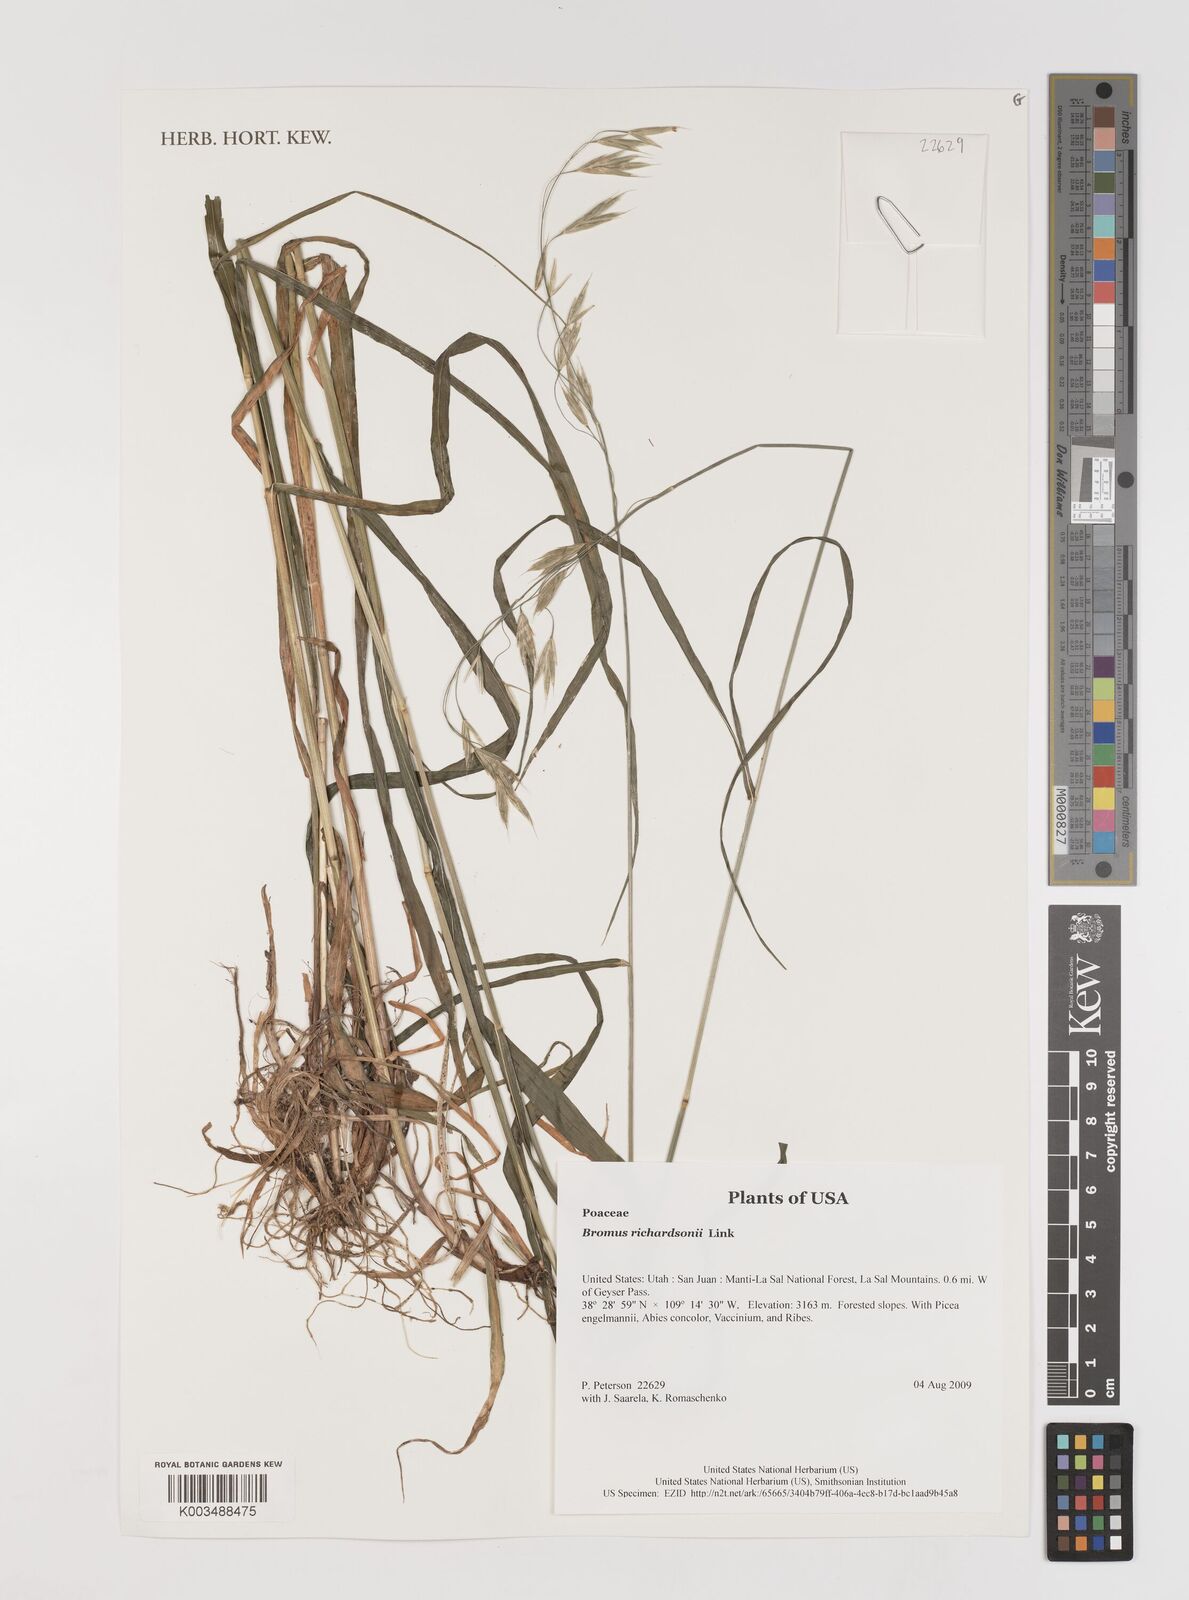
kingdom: Plantae
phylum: Tracheophyta
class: Liliopsida
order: Poales
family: Poaceae
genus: Bromus
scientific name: Bromus richardsonii
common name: Richardson's brome
